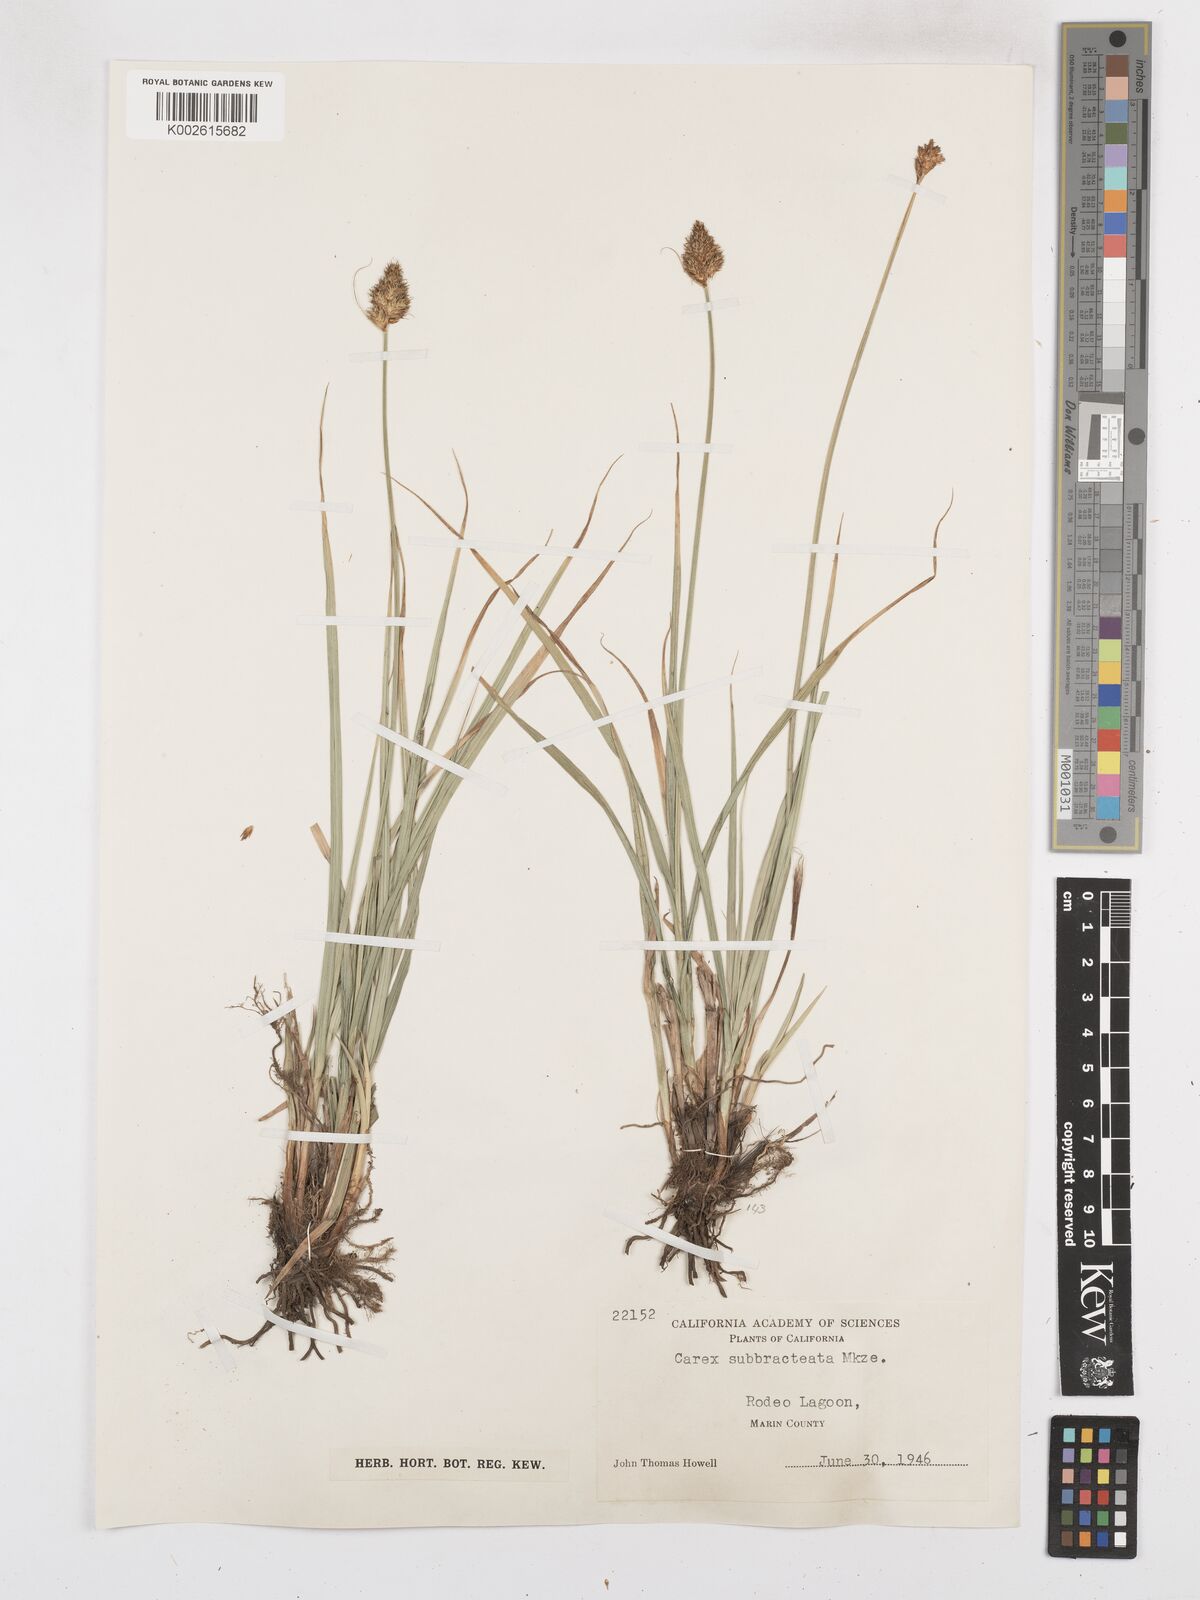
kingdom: Plantae
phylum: Tracheophyta
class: Liliopsida
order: Poales
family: Cyperaceae
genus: Carex
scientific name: Carex subbracteata
